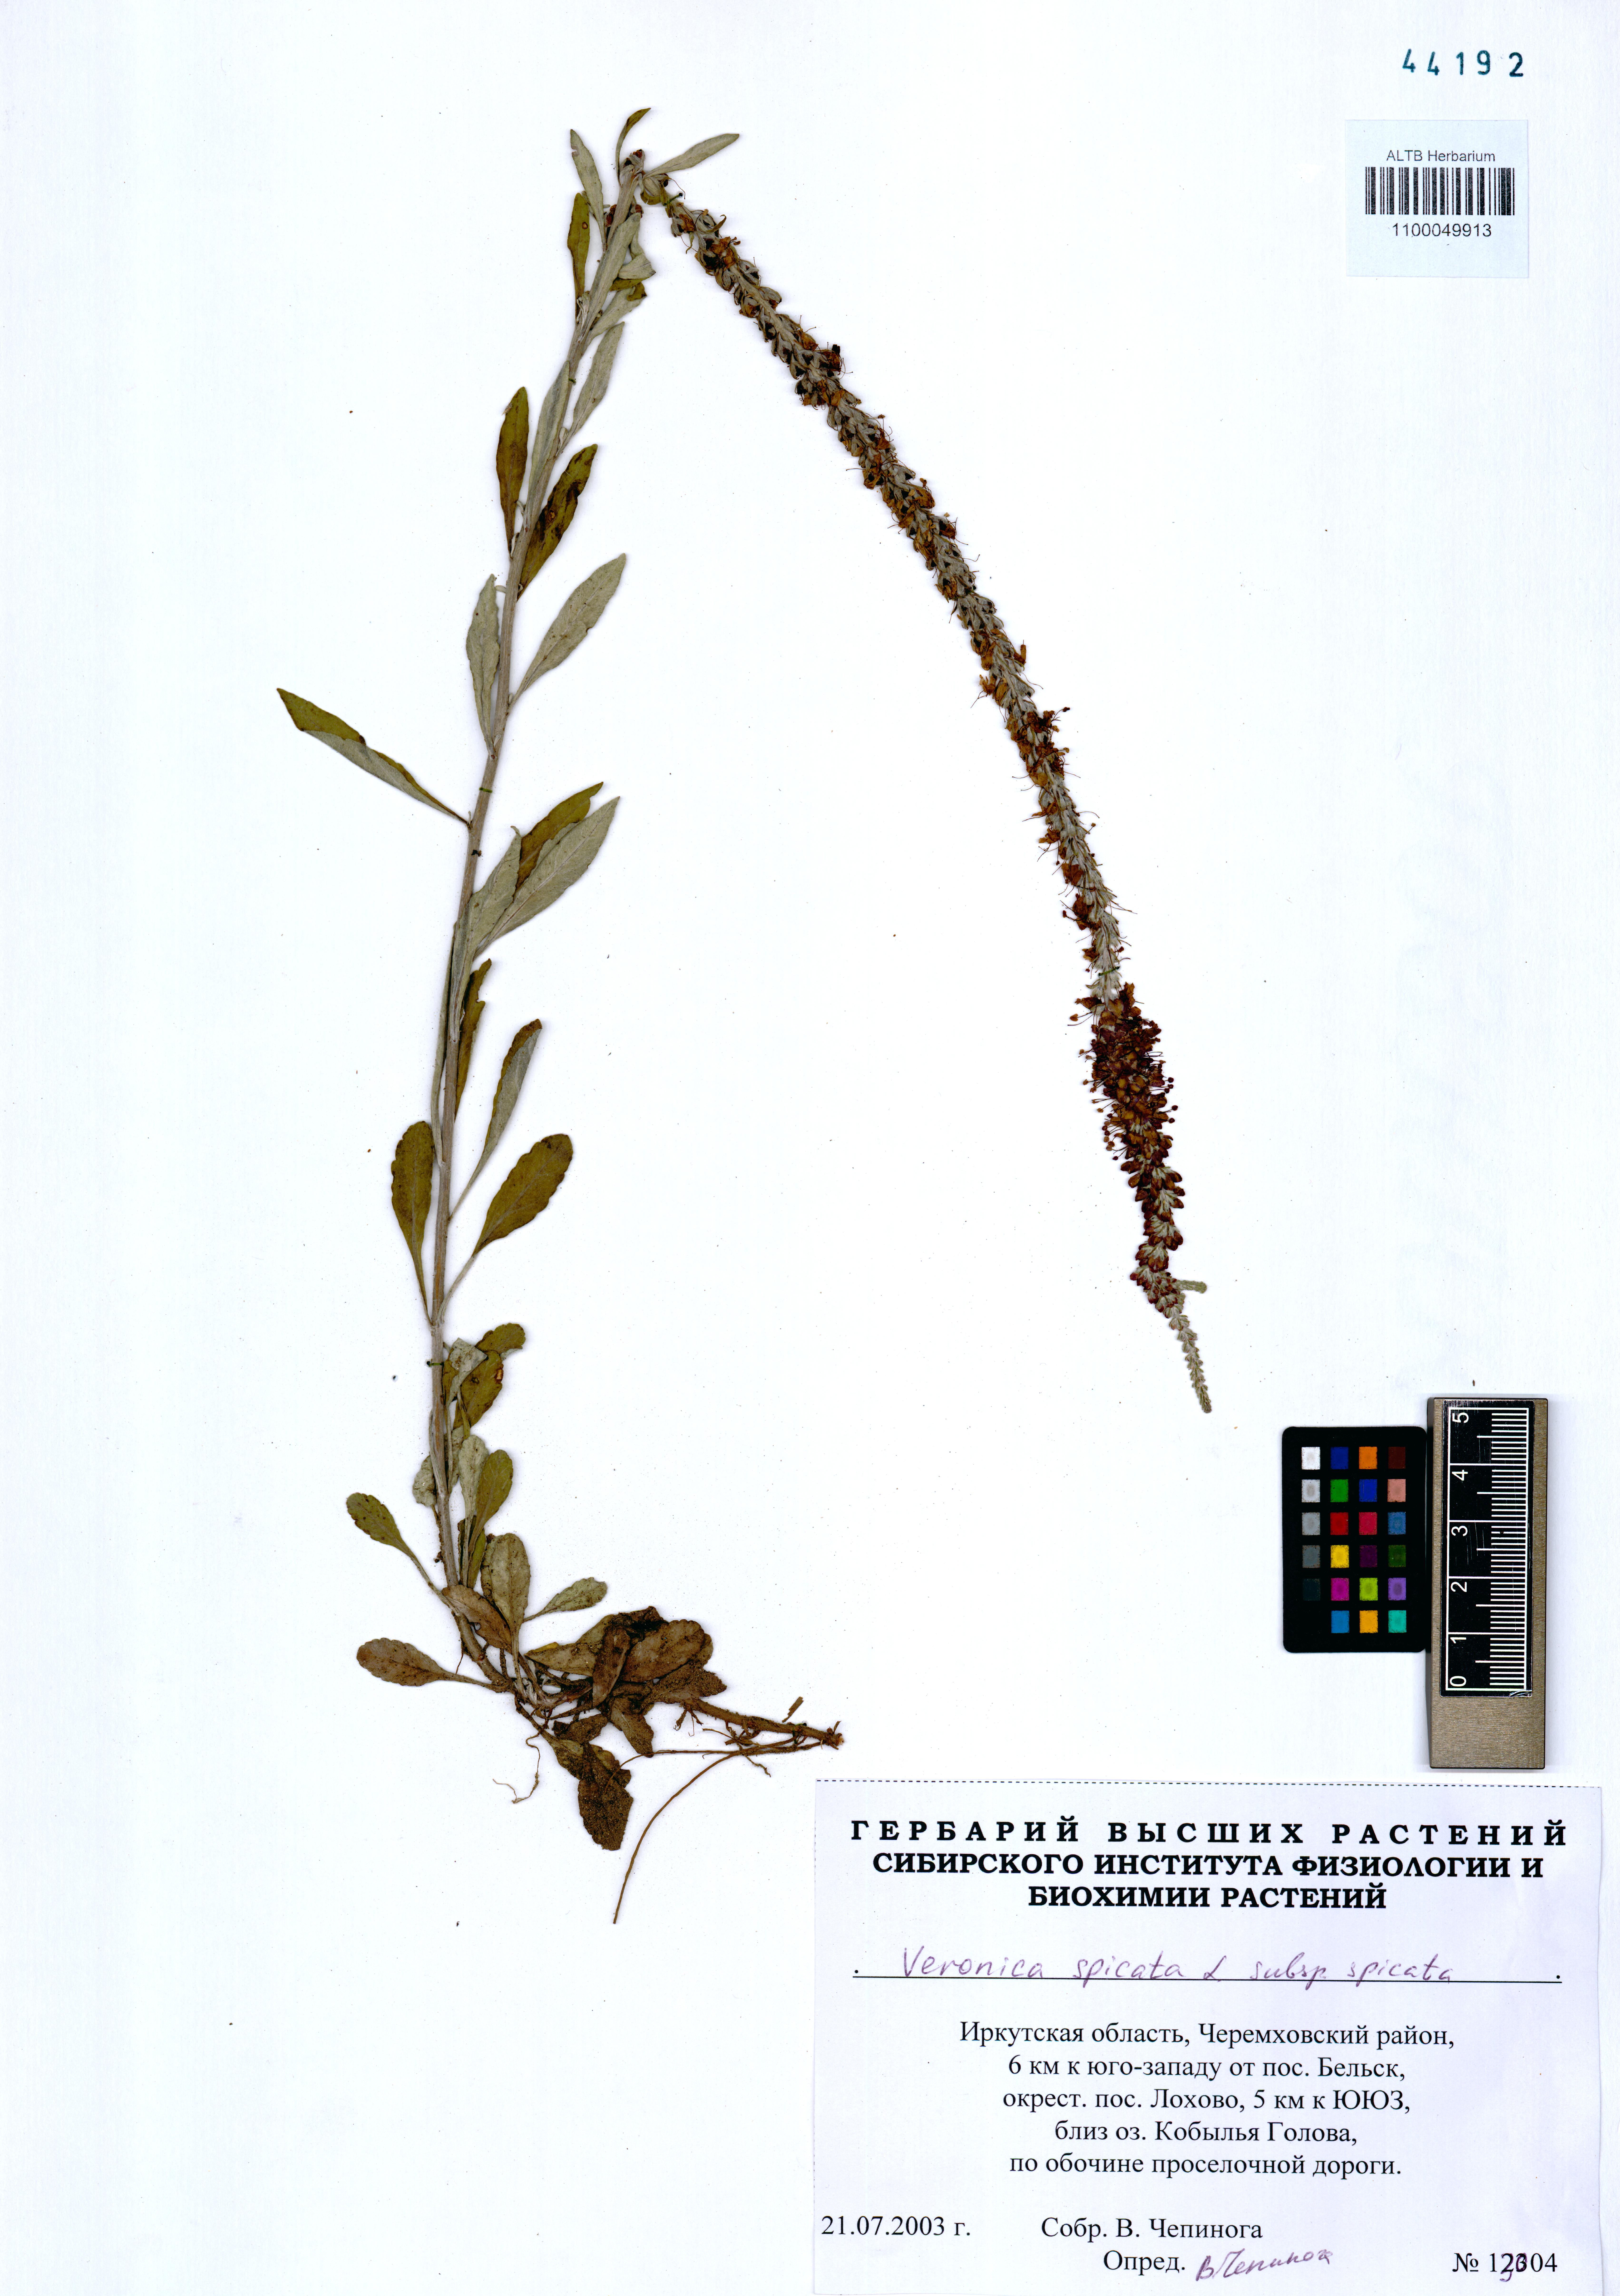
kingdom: Plantae
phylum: Tracheophyta
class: Magnoliopsida
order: Lamiales
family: Plantaginaceae
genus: Veronica
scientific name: Veronica spicata
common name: Spiked speedwell
